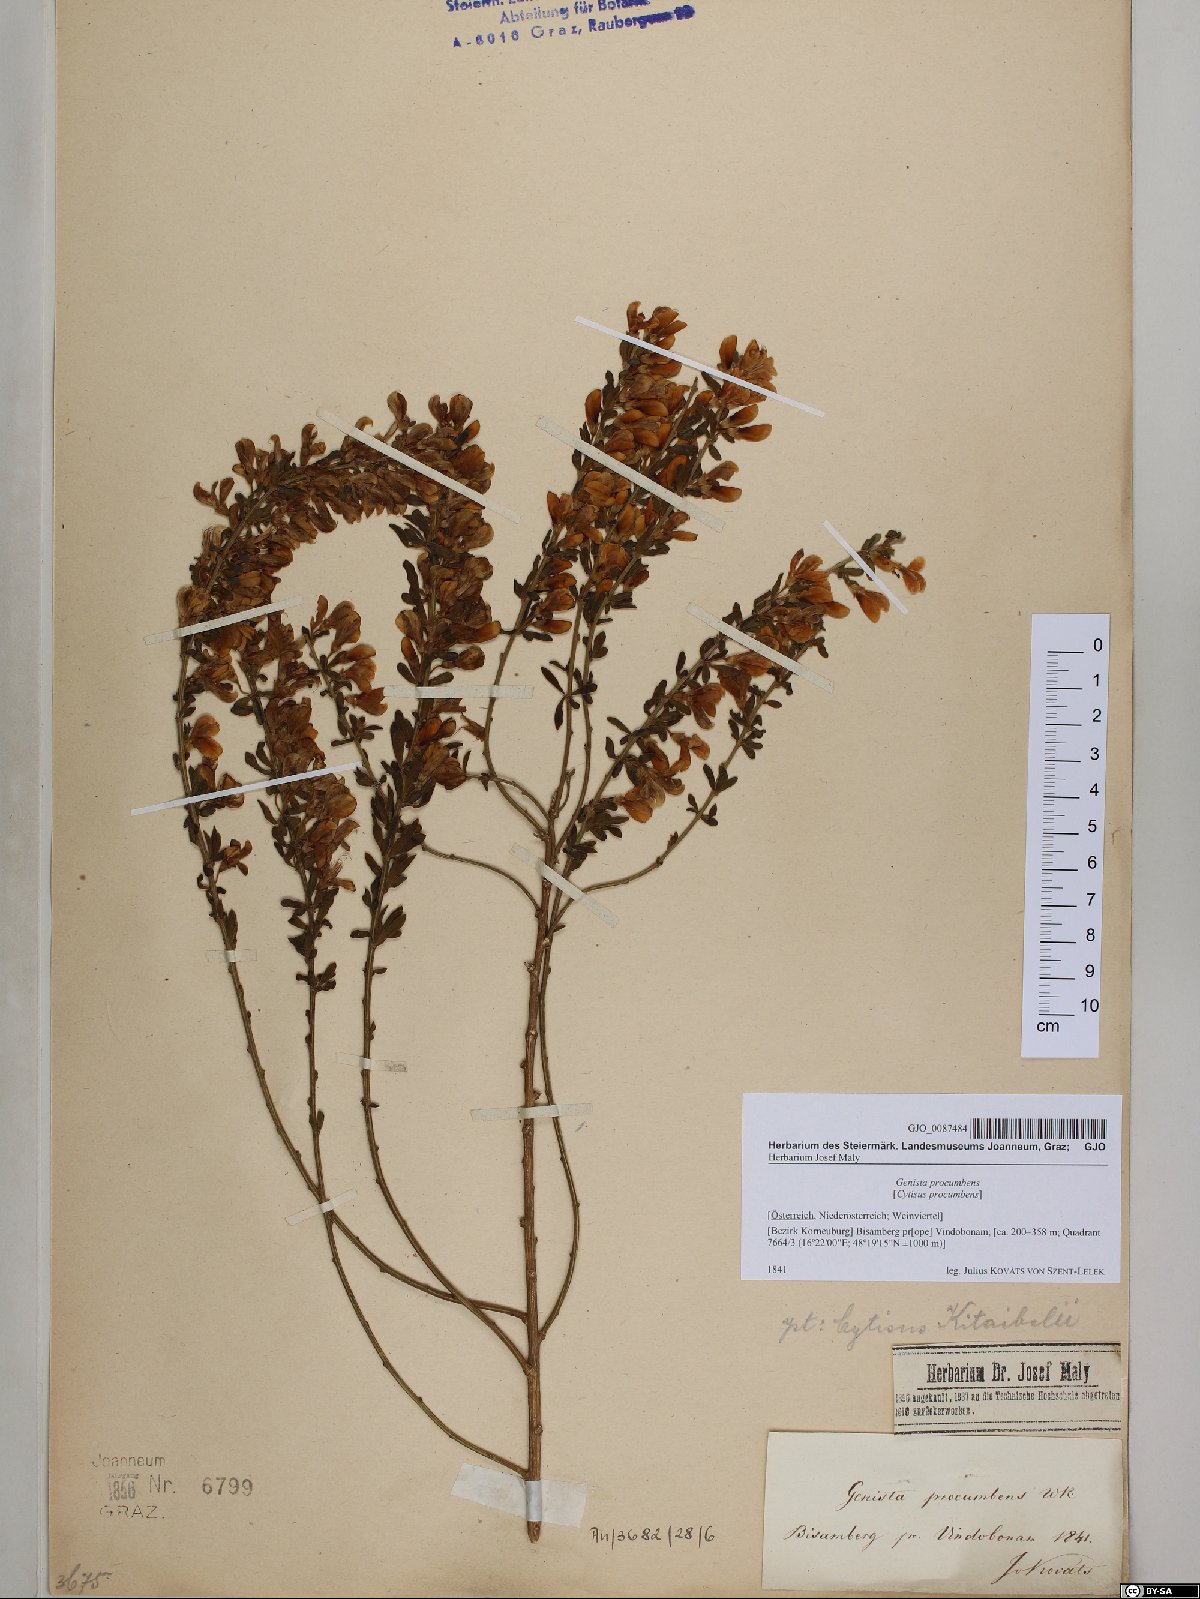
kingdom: Plantae
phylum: Tracheophyta
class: Magnoliopsida
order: Fabales
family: Fabaceae
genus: Cytisus
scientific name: Cytisus procumbens
